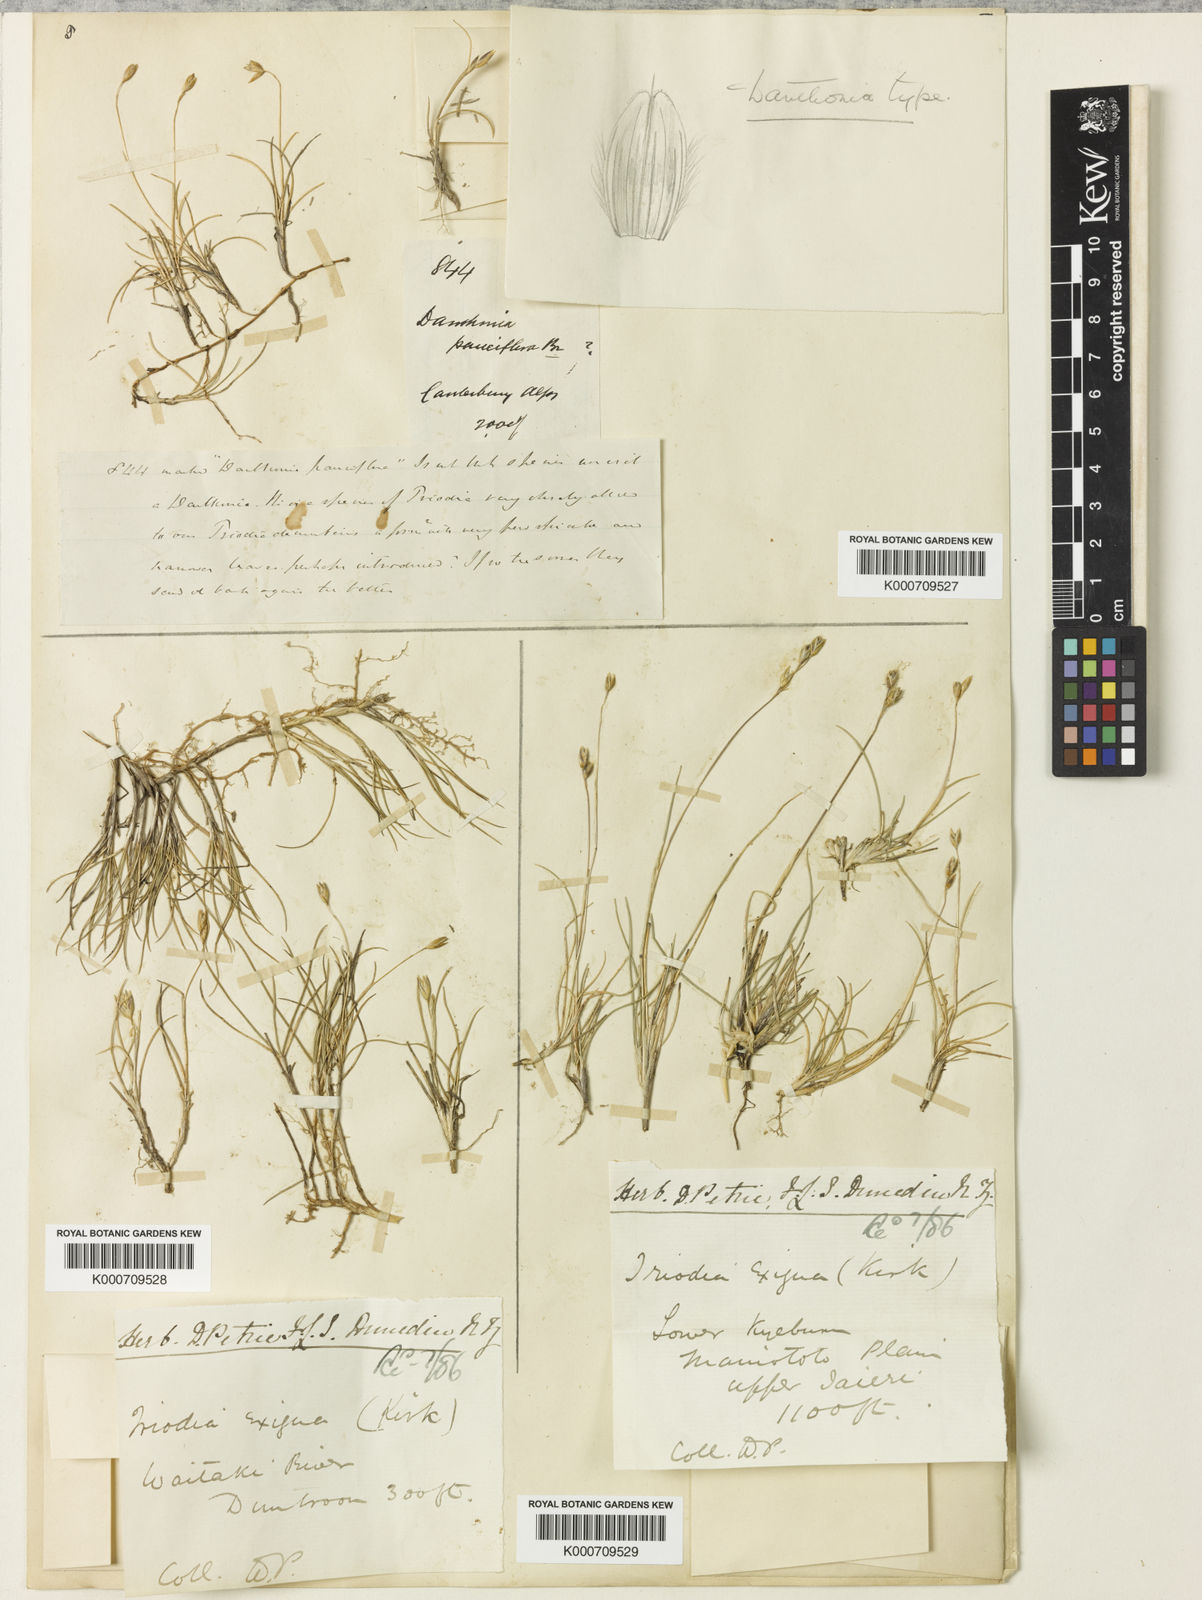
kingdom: Plantae
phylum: Tracheophyta
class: Liliopsida
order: Poales
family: Poaceae
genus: Rytidosperma
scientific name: Rytidosperma exiguum
